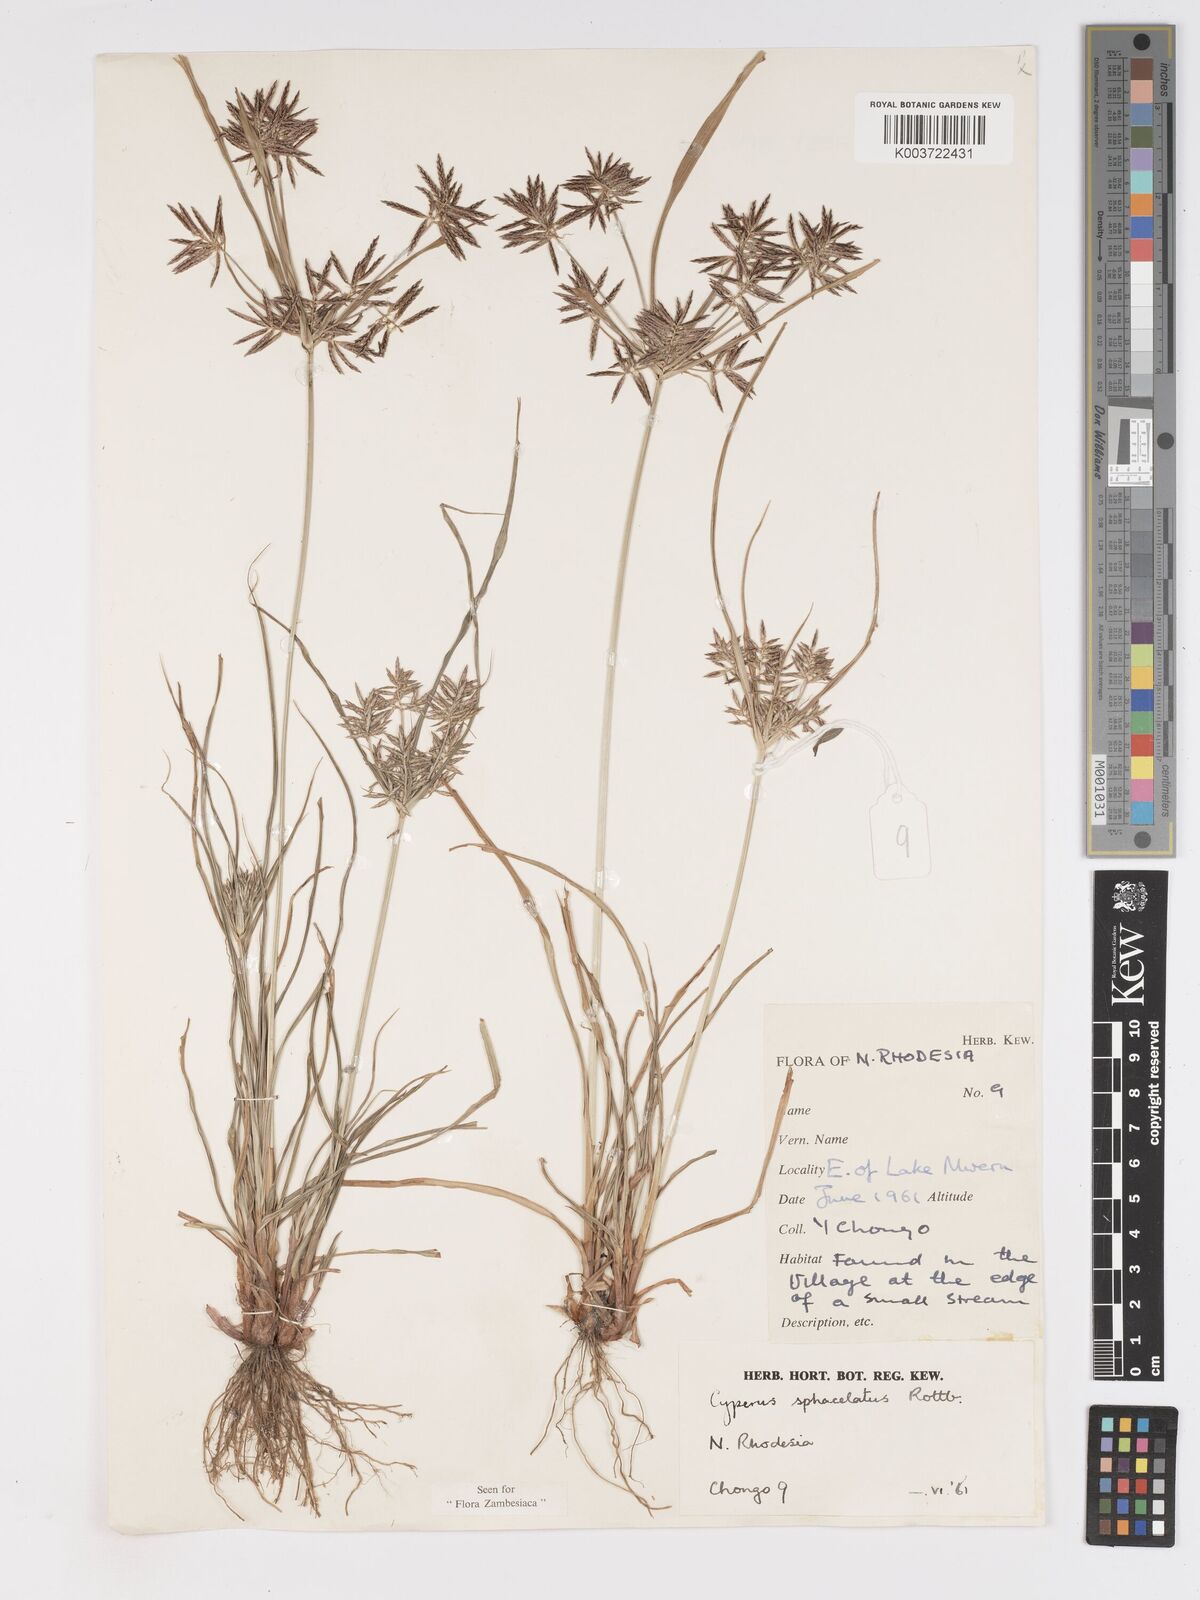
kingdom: Plantae
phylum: Tracheophyta
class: Liliopsida
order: Poales
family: Cyperaceae
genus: Cyperus
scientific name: Cyperus sphacelatus
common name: Roadside flatsedge
